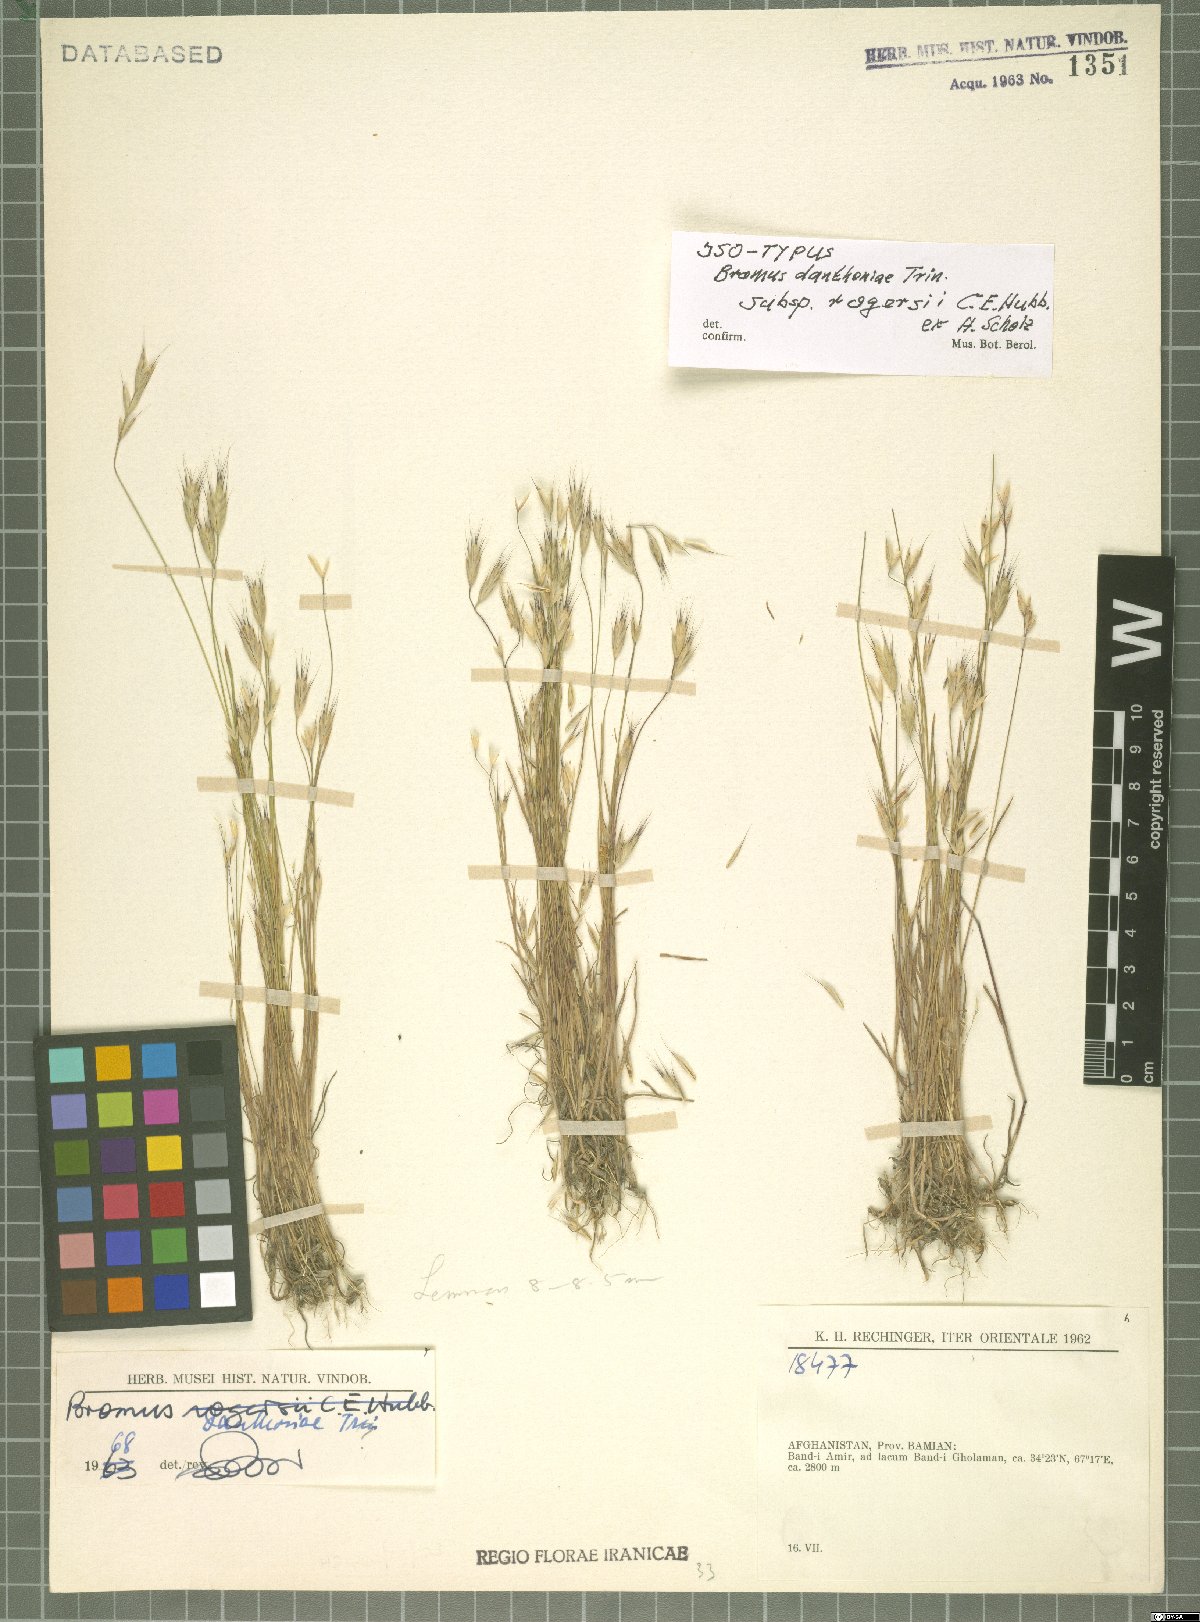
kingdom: Plantae
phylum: Tracheophyta
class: Liliopsida
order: Poales
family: Poaceae
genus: Bromus
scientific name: Bromus danthoniae
